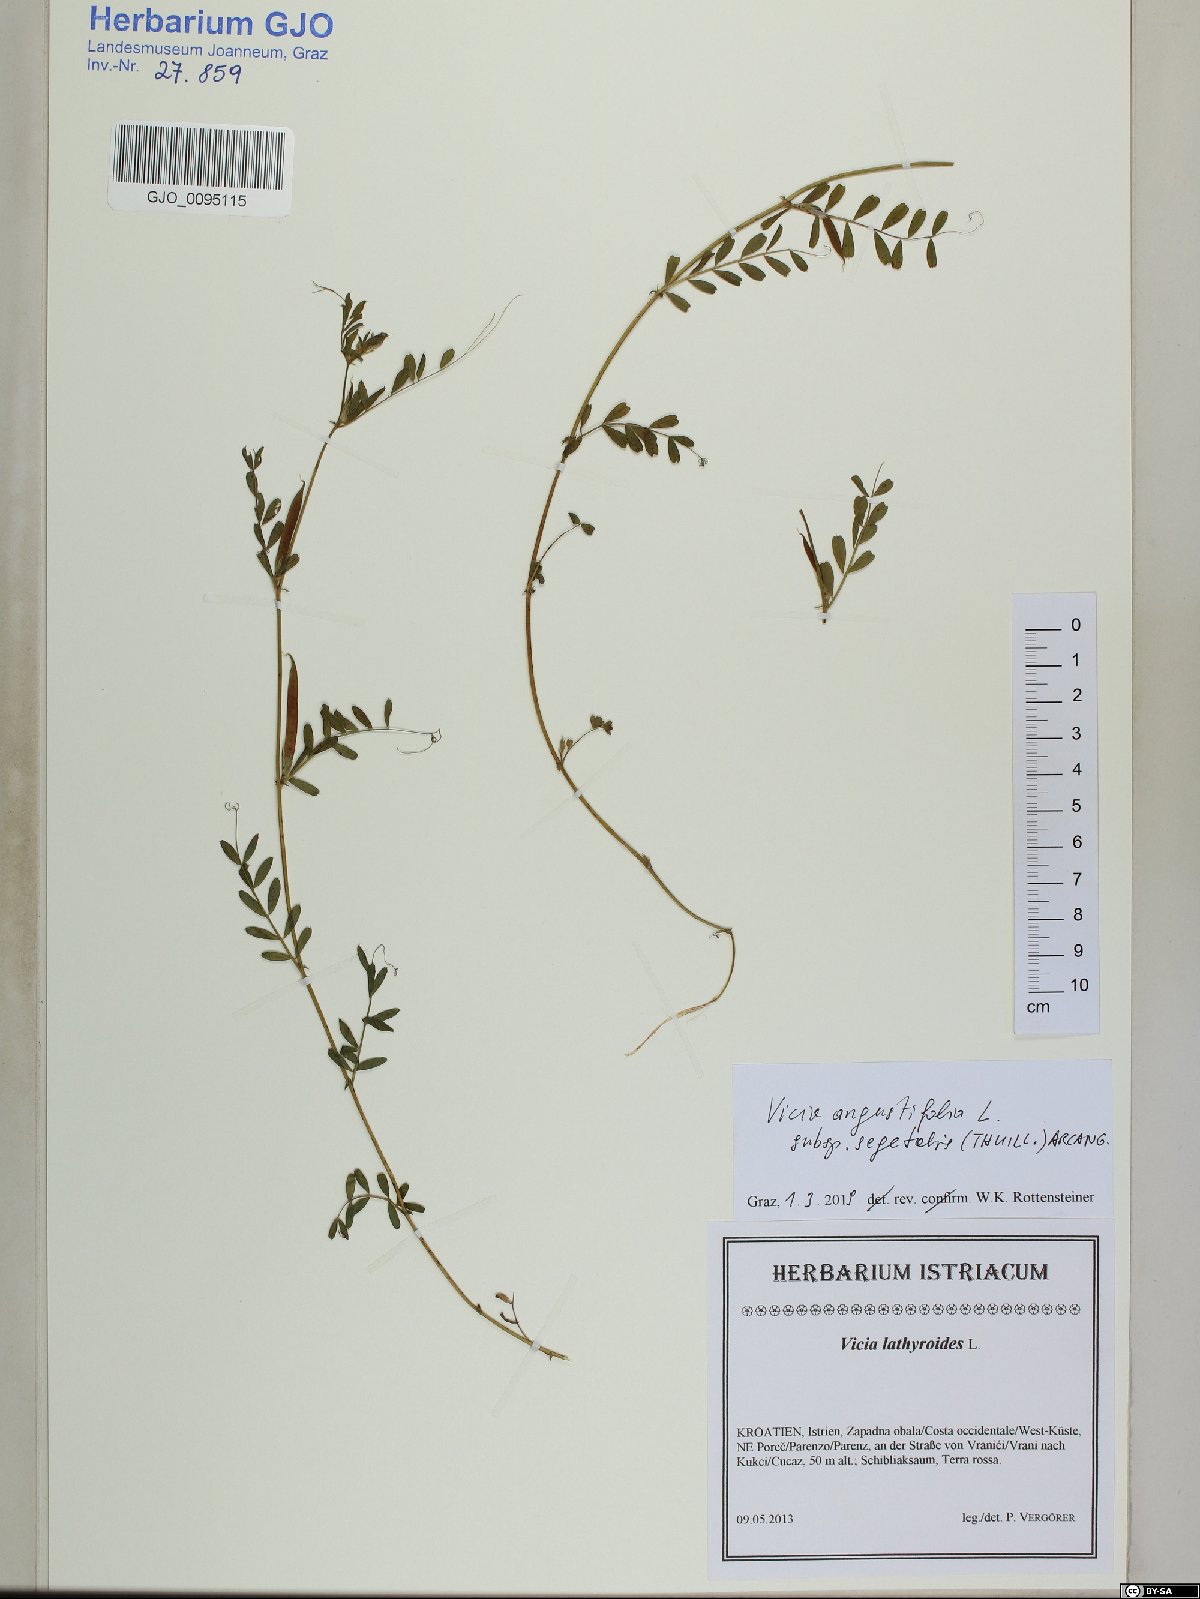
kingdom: Plantae
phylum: Tracheophyta
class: Magnoliopsida
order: Fabales
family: Fabaceae
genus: Vicia
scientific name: Vicia sativa
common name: Garden vetch
